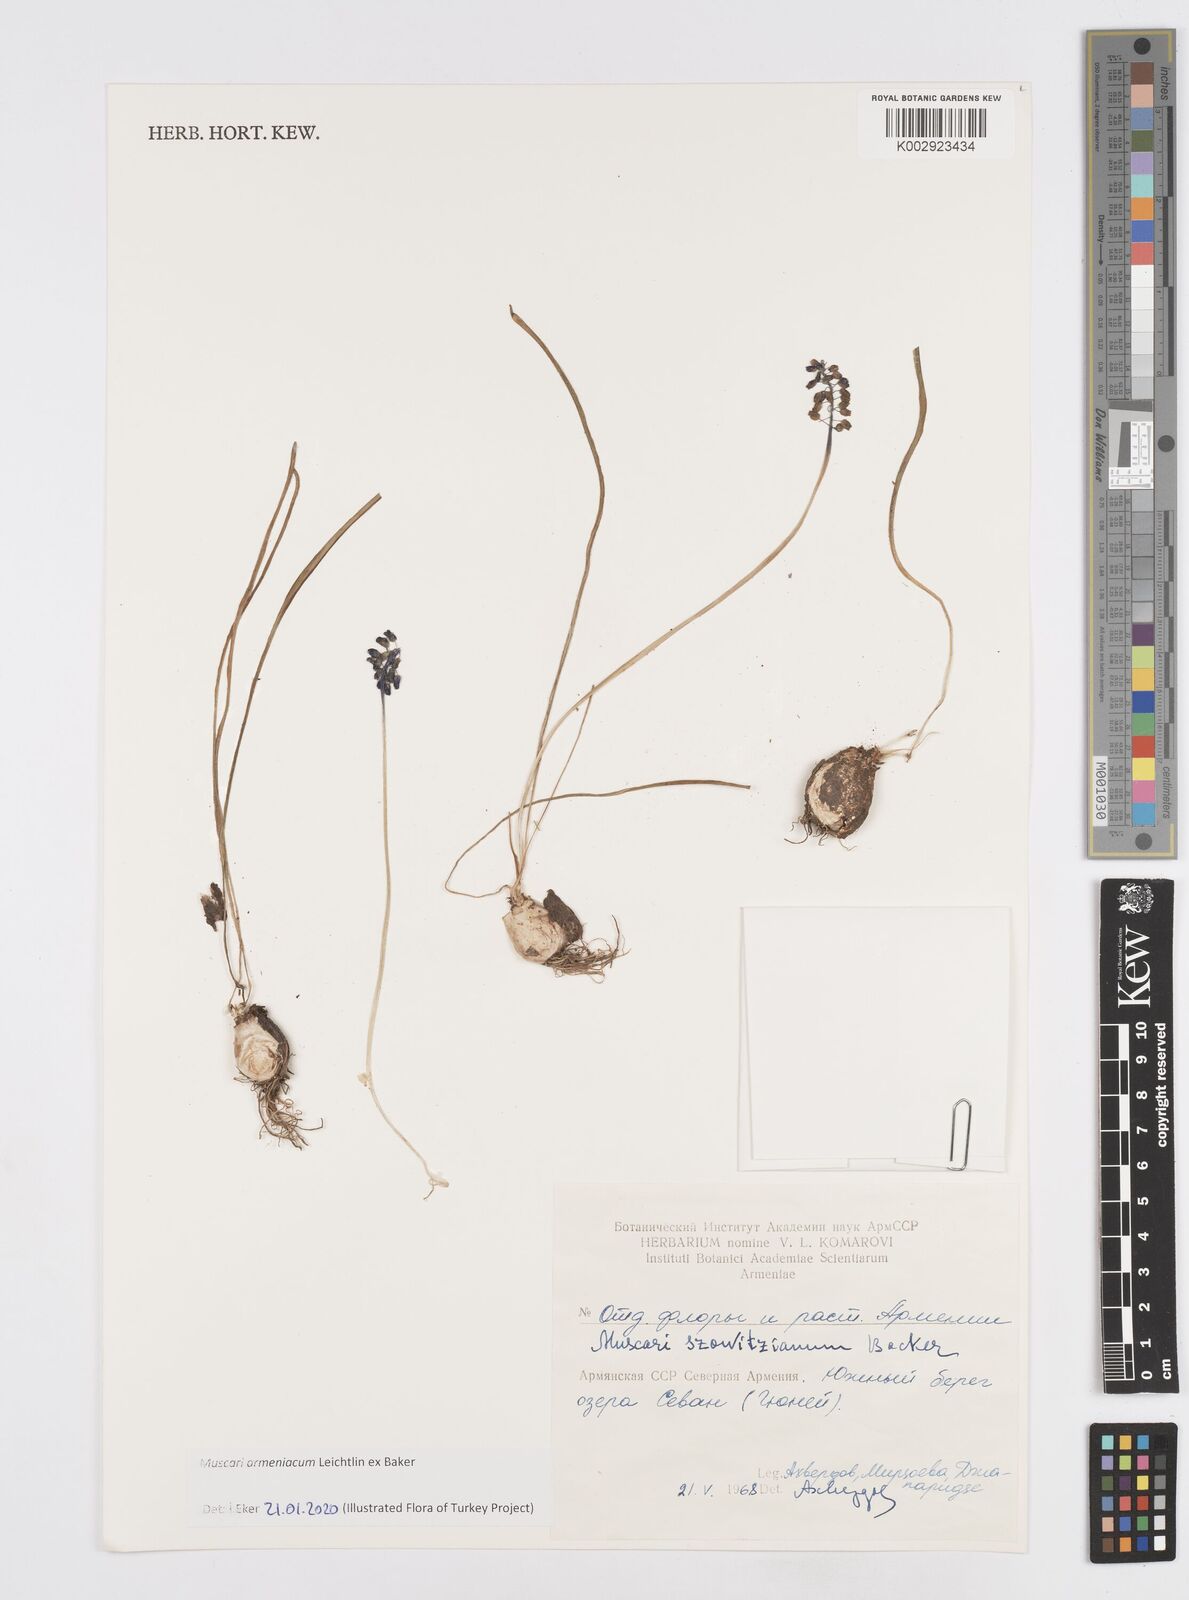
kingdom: Plantae
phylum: Tracheophyta
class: Liliopsida
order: Asparagales
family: Asparagaceae
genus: Muscari
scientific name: Muscari neglectum
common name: Grape-hyacinth
